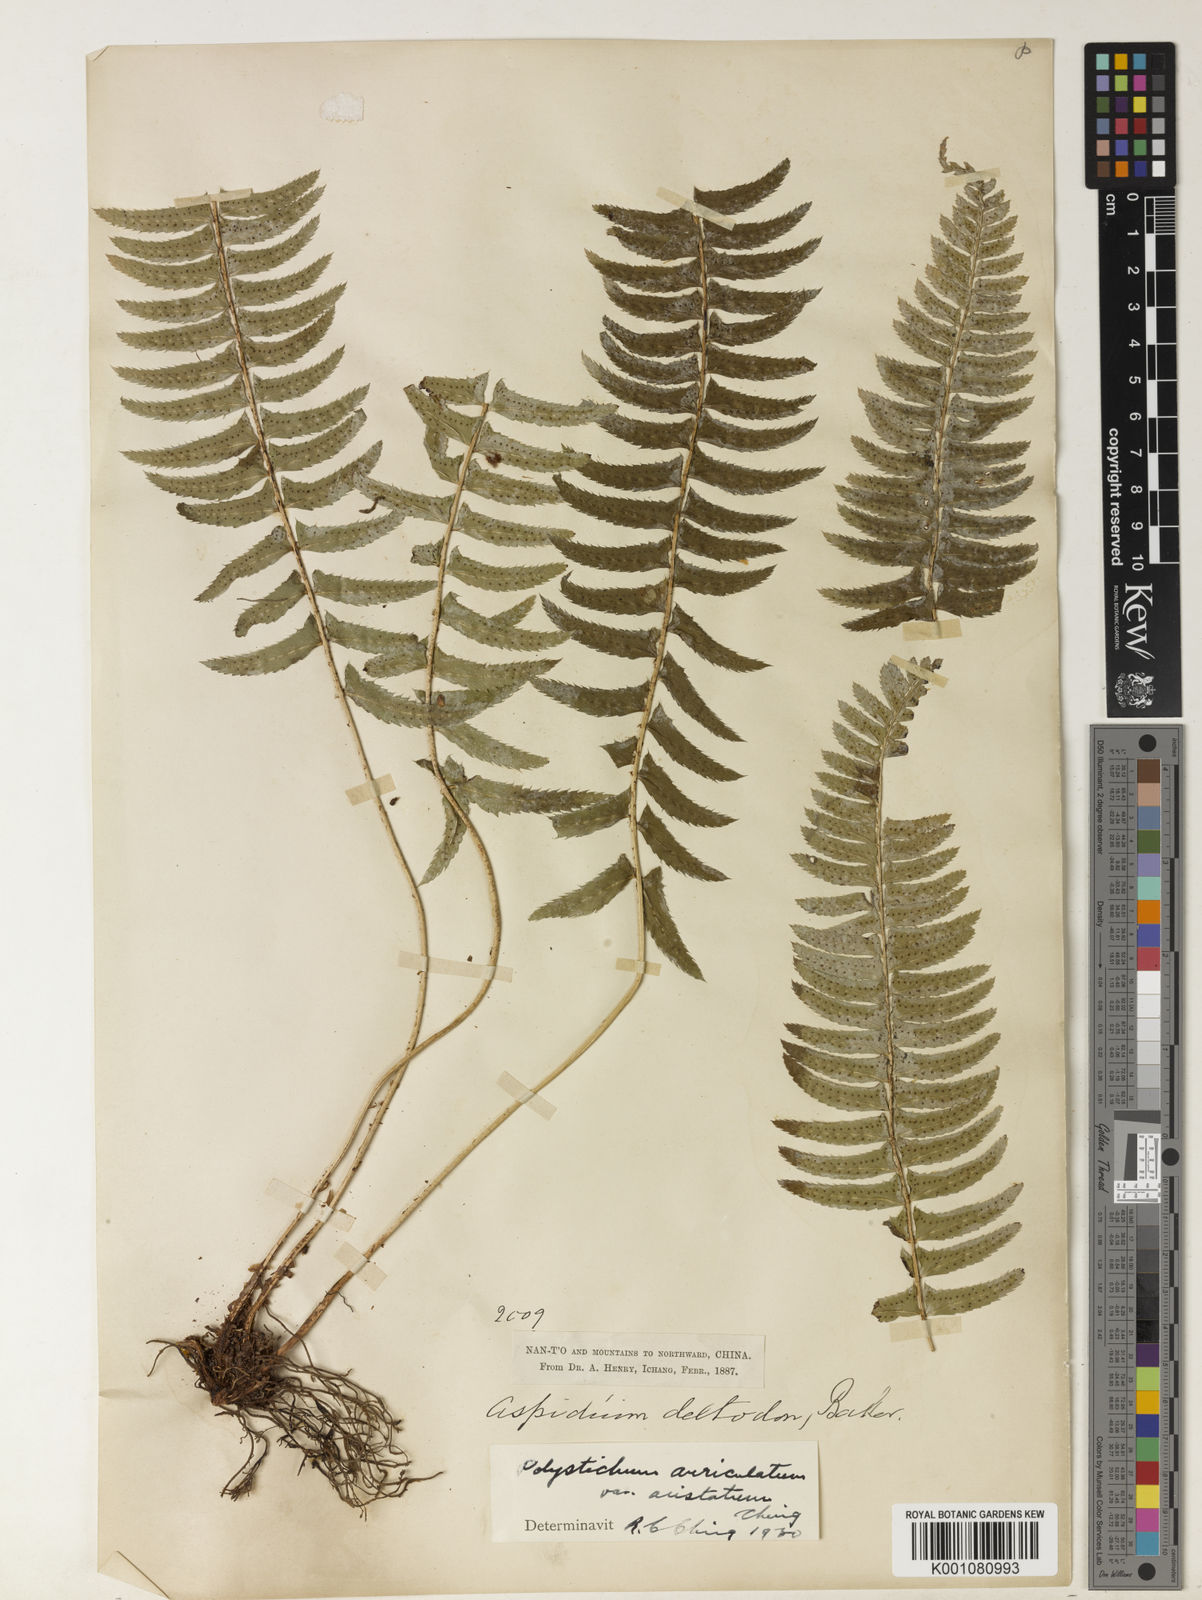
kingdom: Plantae
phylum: Tracheophyta
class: Polypodiopsida
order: Polypodiales
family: Nephrolepidaceae
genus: Nephrolepis
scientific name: Nephrolepis cordifolia
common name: Narrow swordfern
